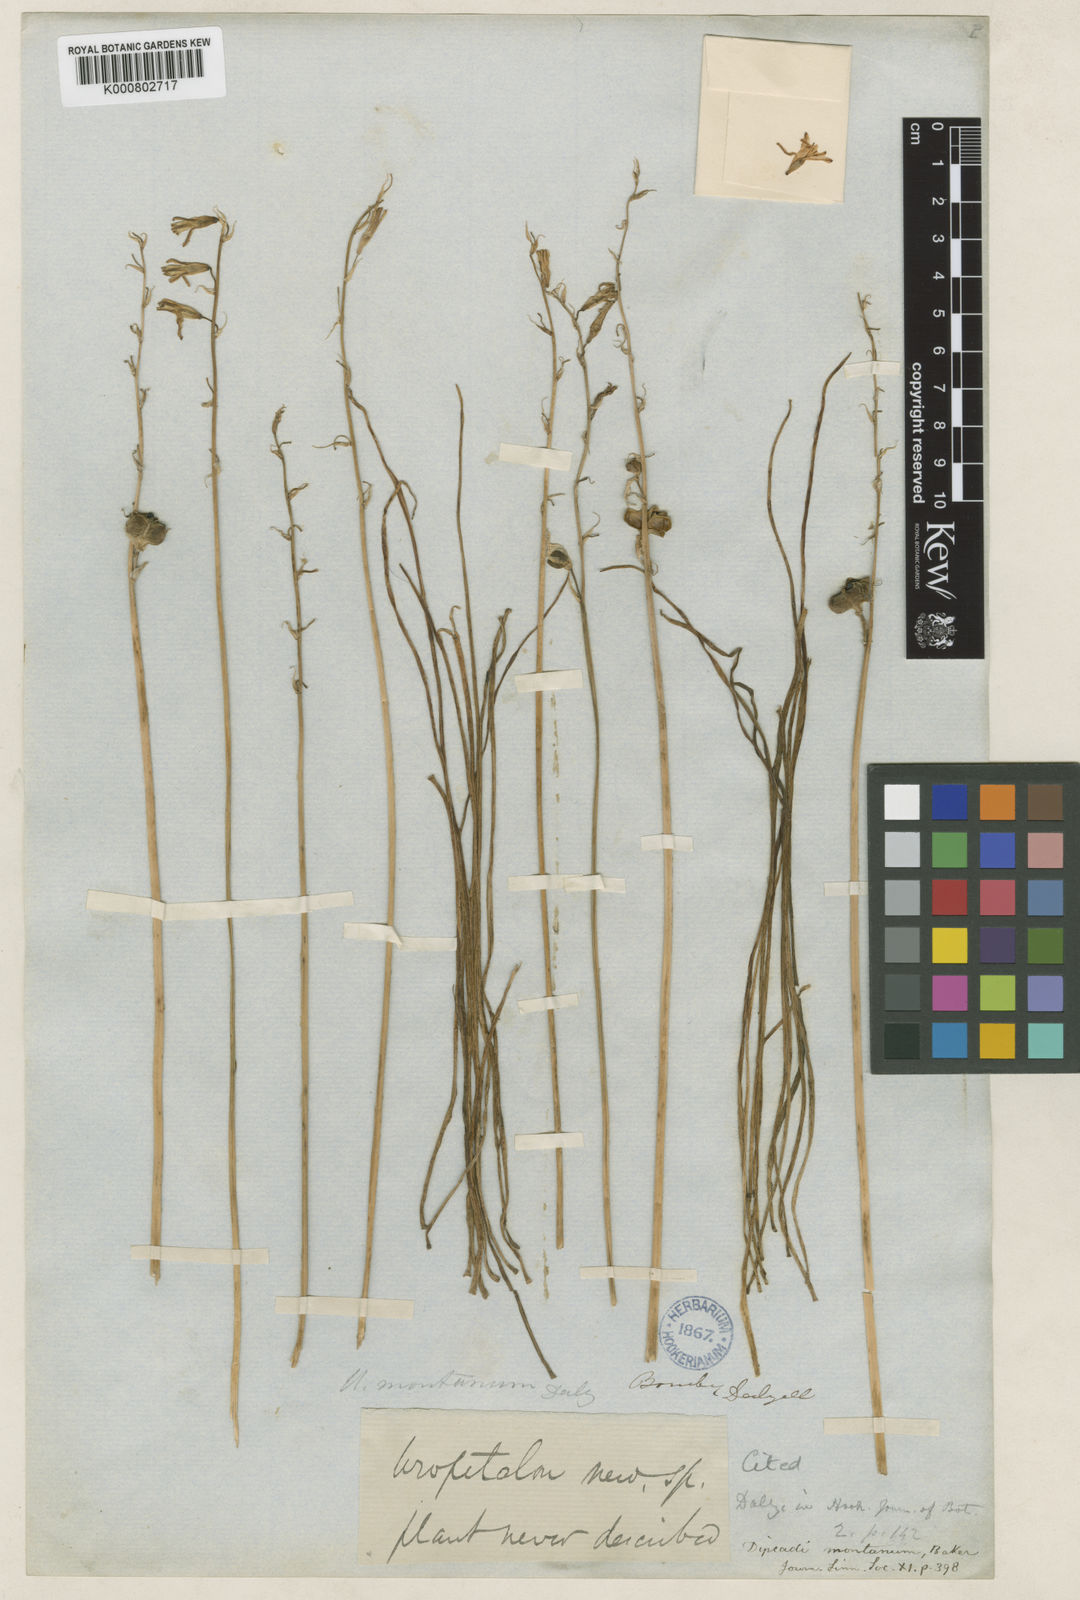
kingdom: Plantae
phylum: Tracheophyta
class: Liliopsida
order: Asparagales
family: Asparagaceae
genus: Dipcadi
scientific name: Dipcadi montanum
